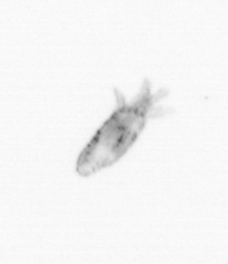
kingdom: Animalia
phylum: Arthropoda
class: Copepoda
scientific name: Copepoda
